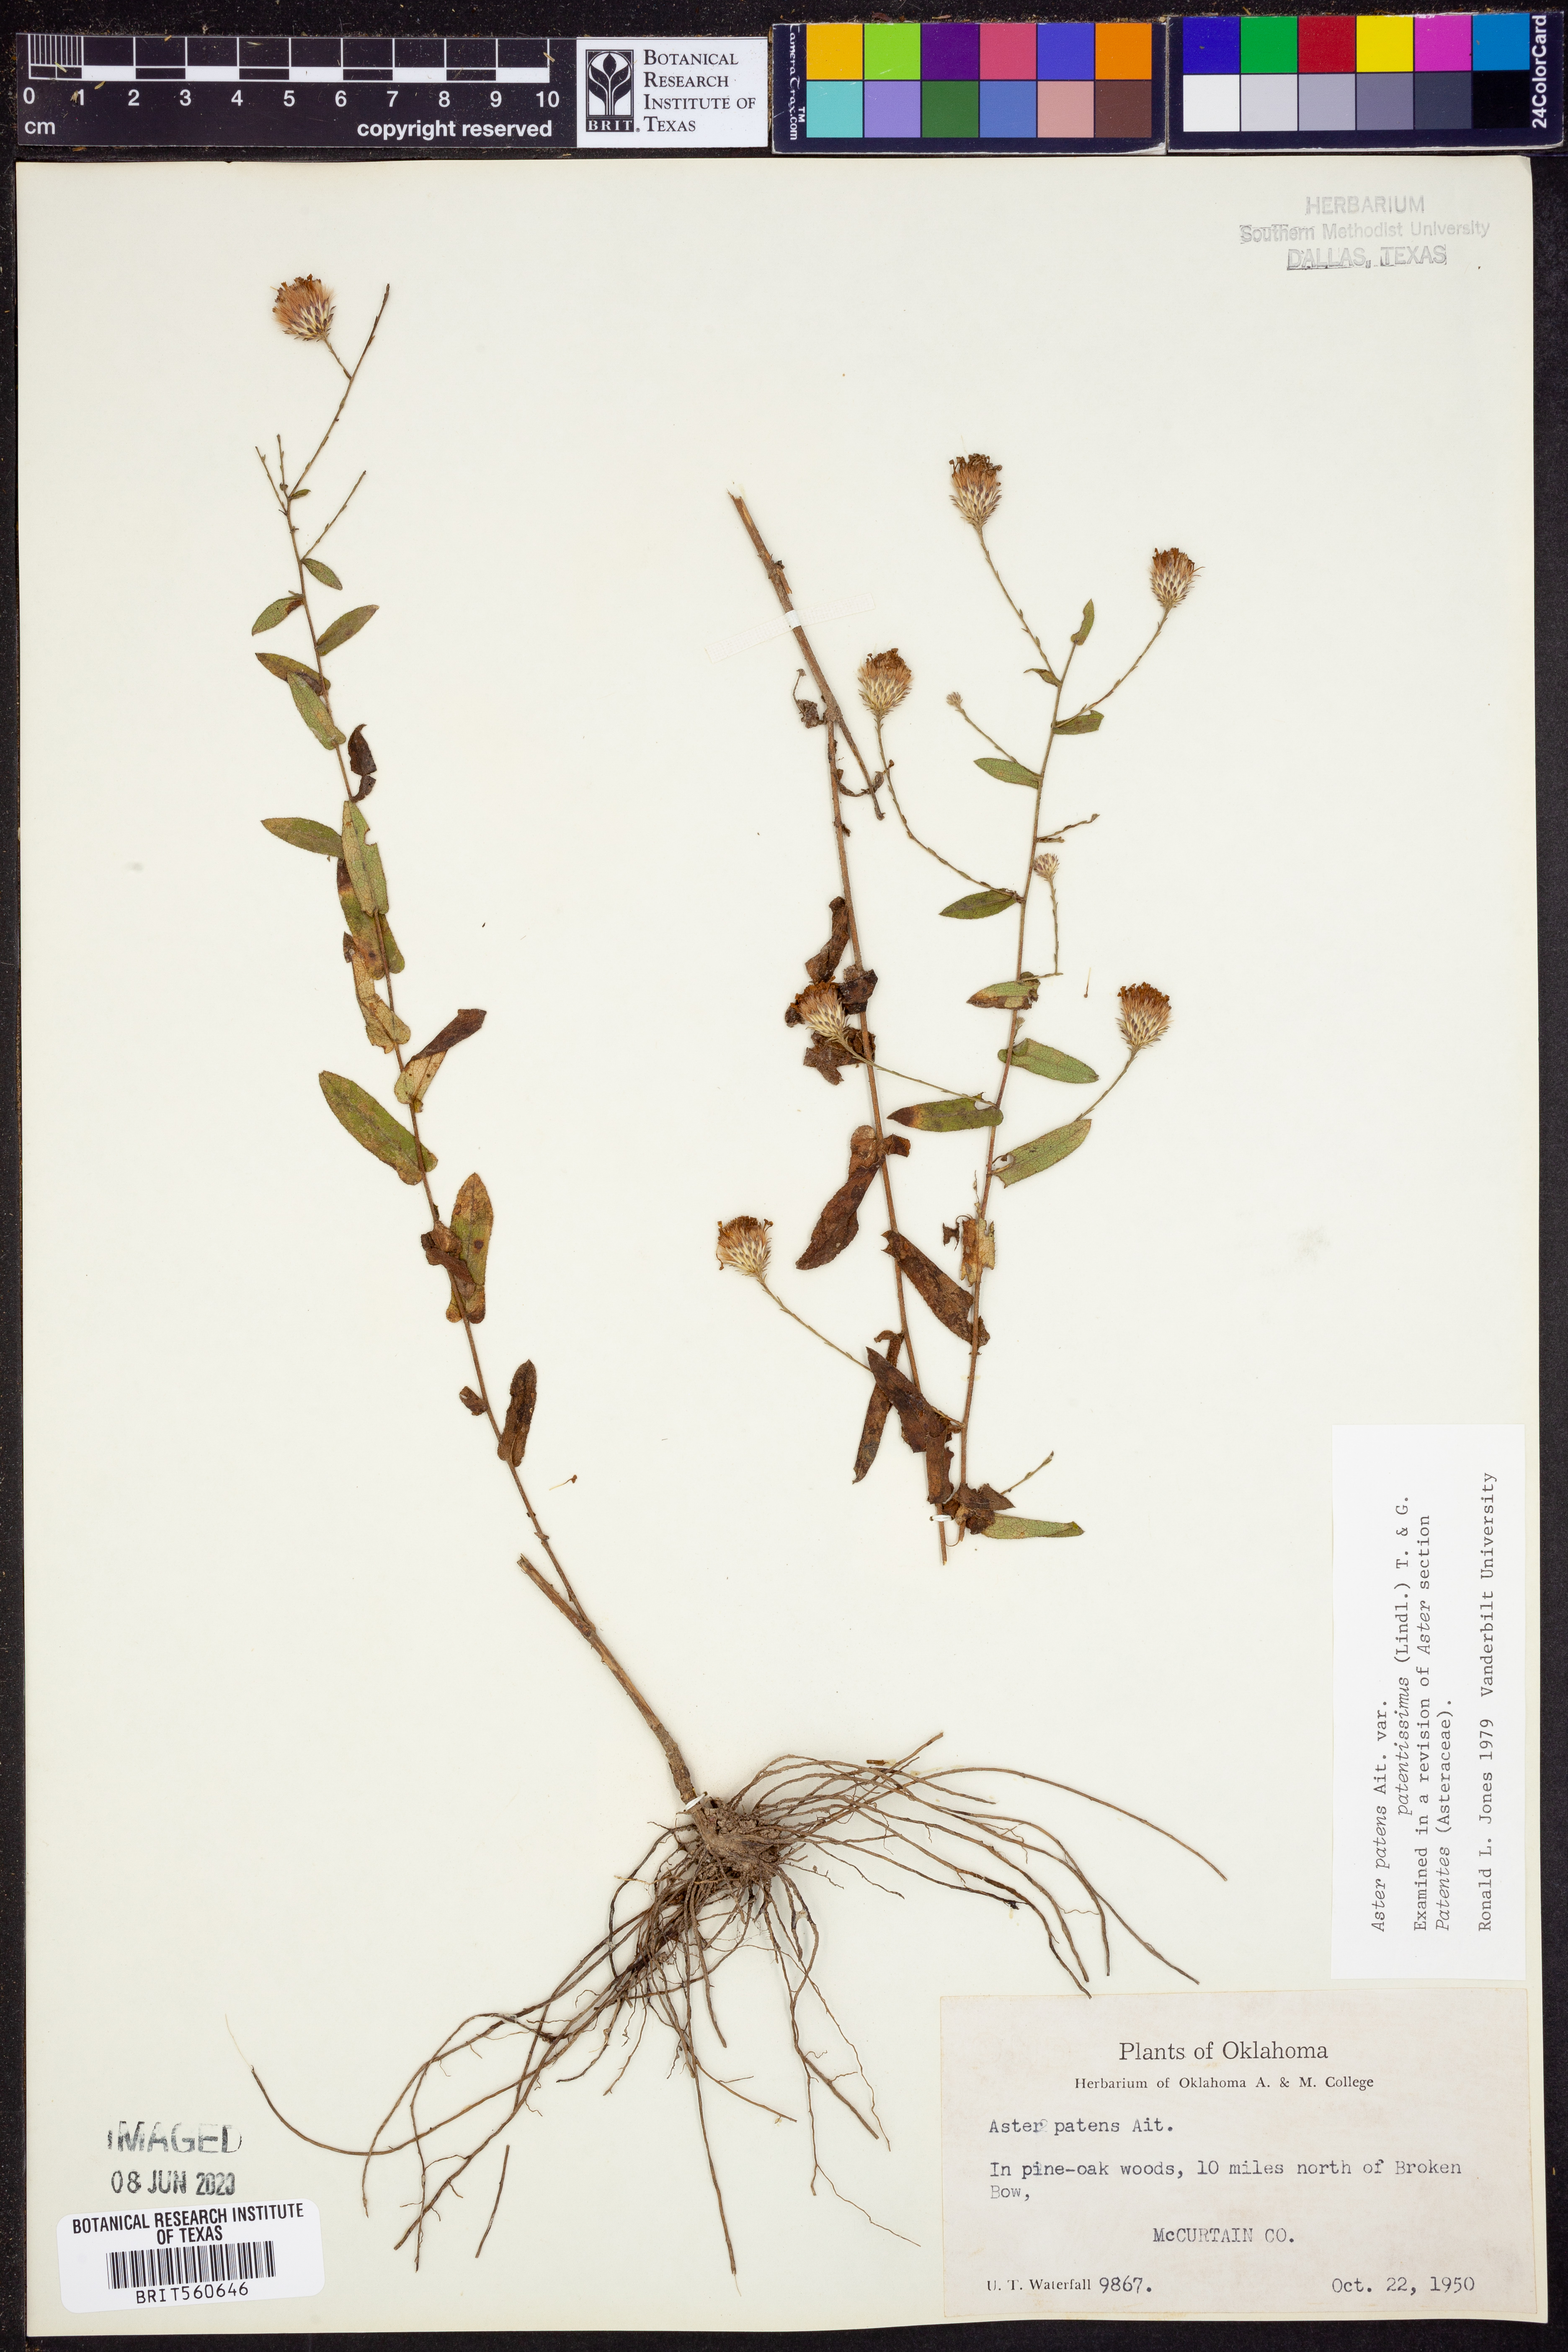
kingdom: Plantae
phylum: Tracheophyta
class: Magnoliopsida
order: Asterales
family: Asteraceae
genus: Symphyotrichum
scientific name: Symphyotrichum patens
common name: Late purple aster
